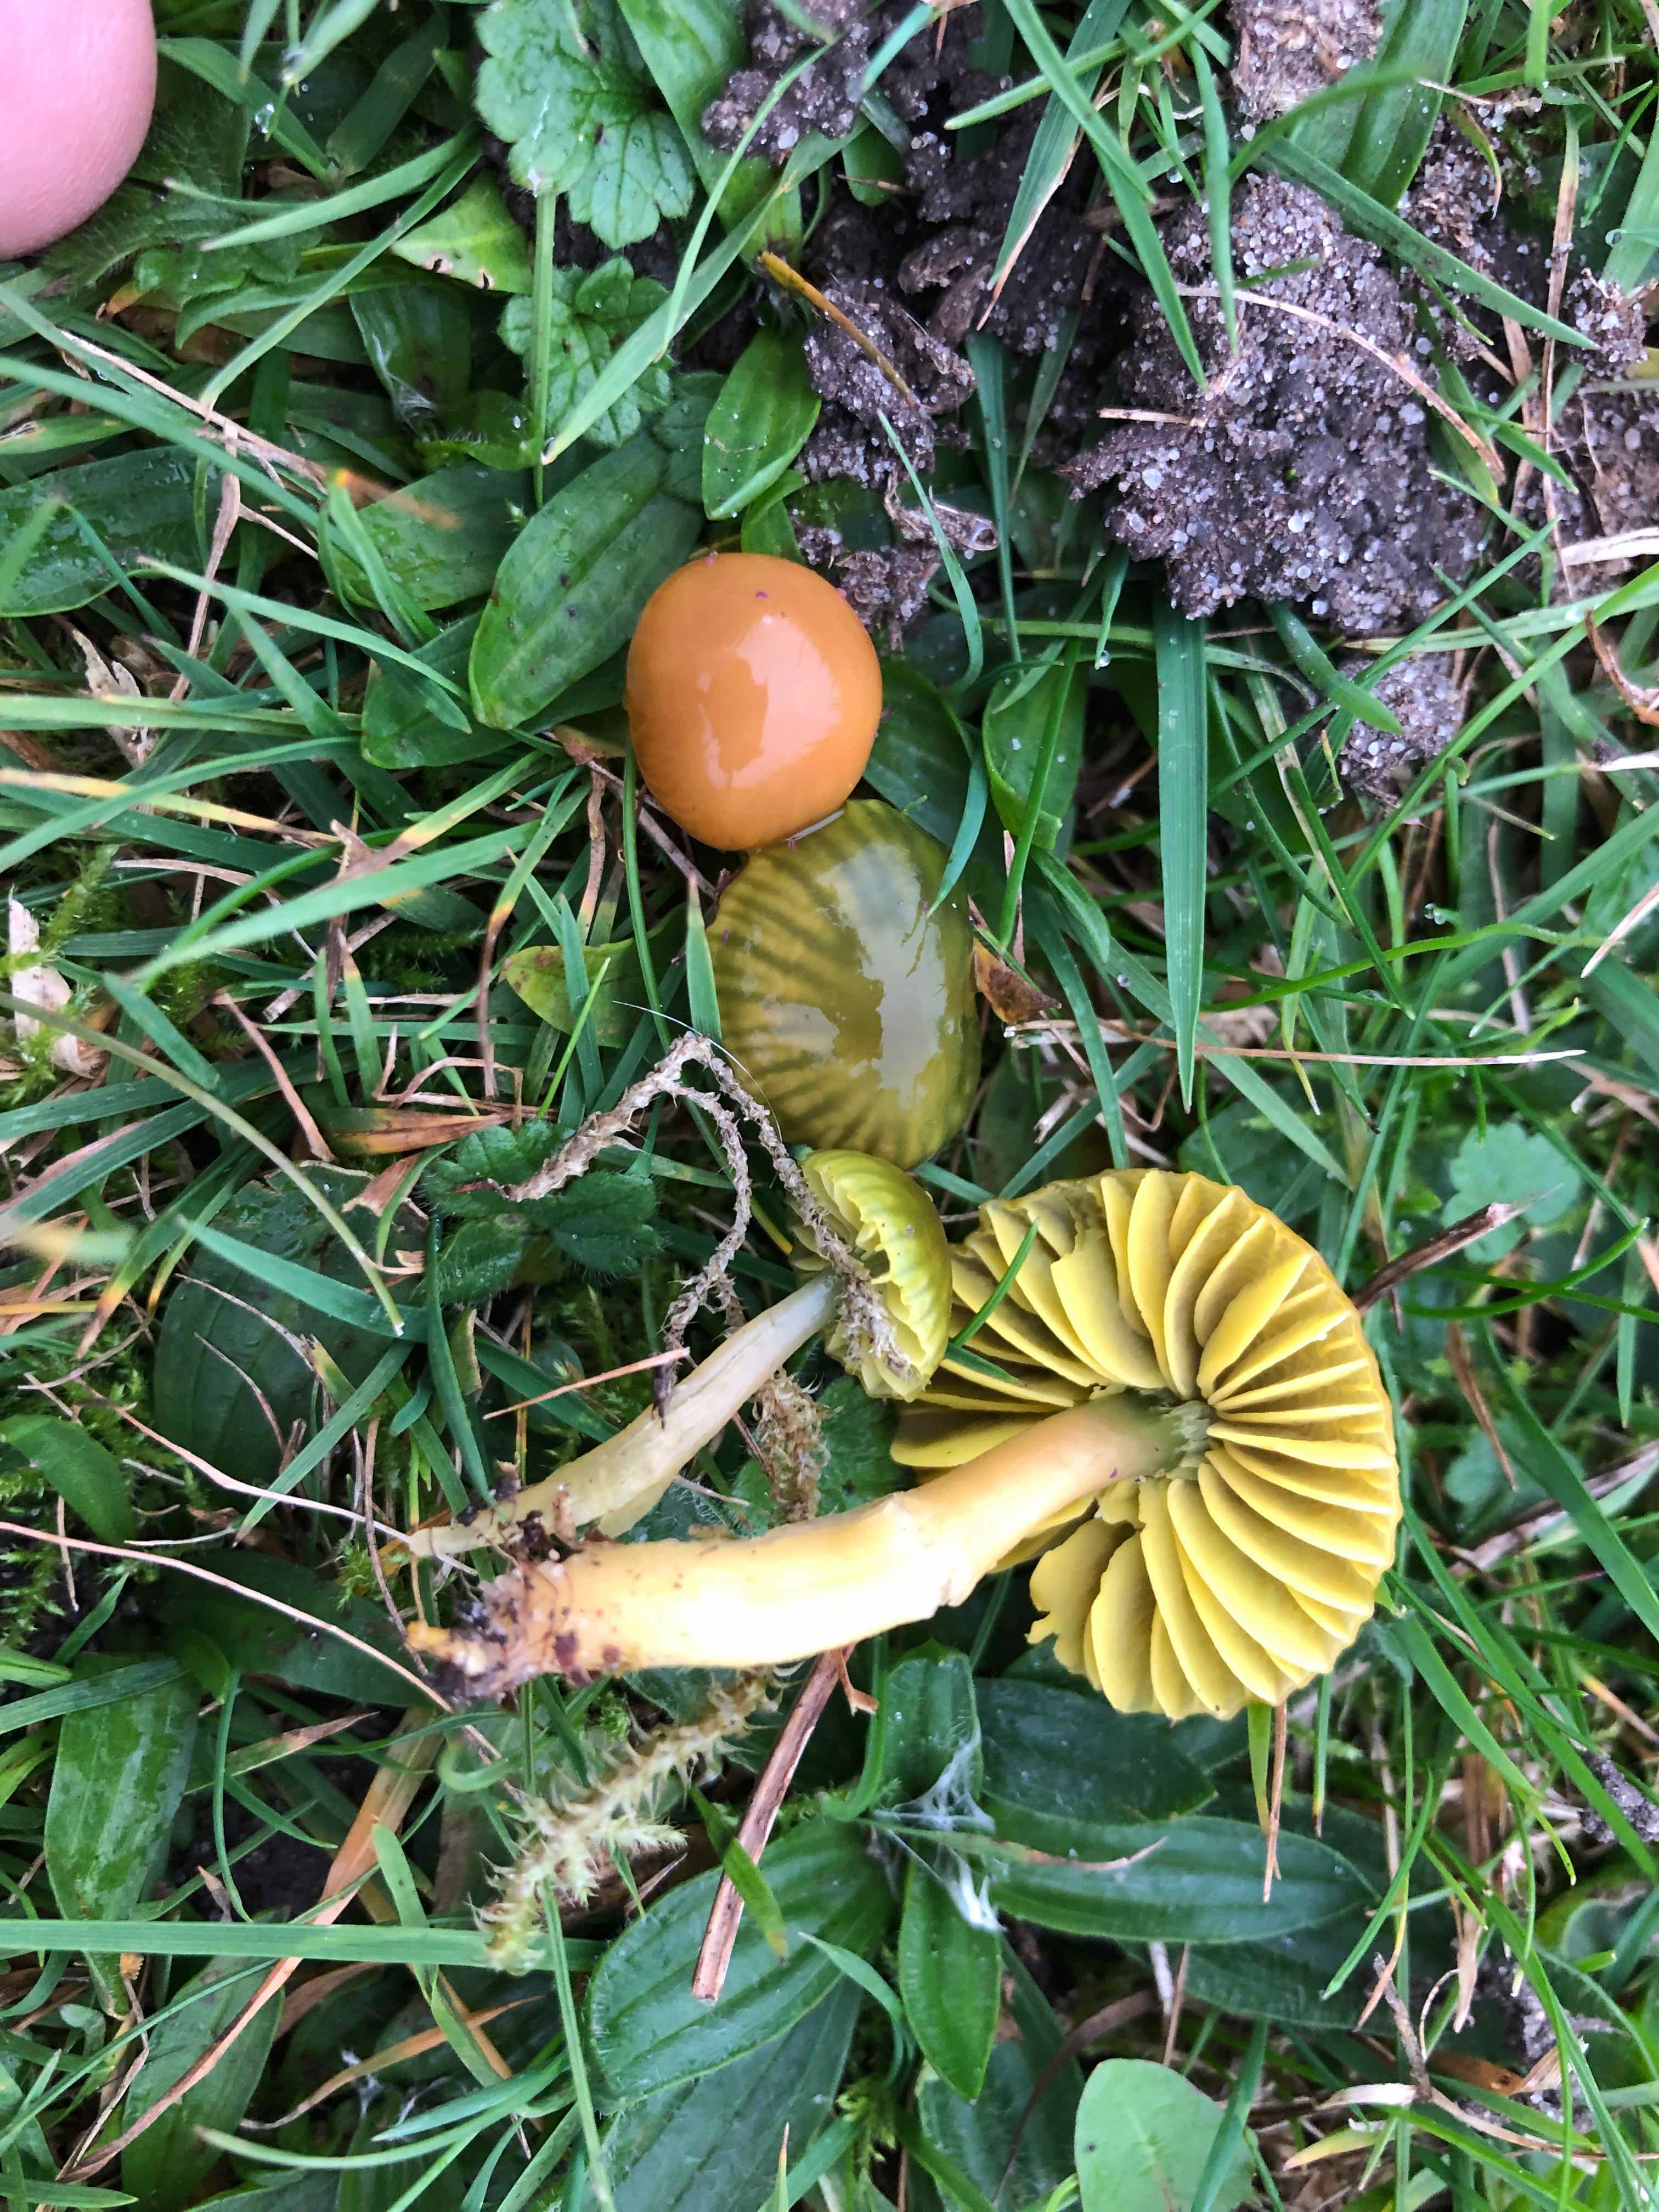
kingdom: Fungi
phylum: Basidiomycota
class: Agaricomycetes
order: Agaricales
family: Hygrophoraceae
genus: Gliophorus
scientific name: Gliophorus psittacinus
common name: papegøje-vokshat
